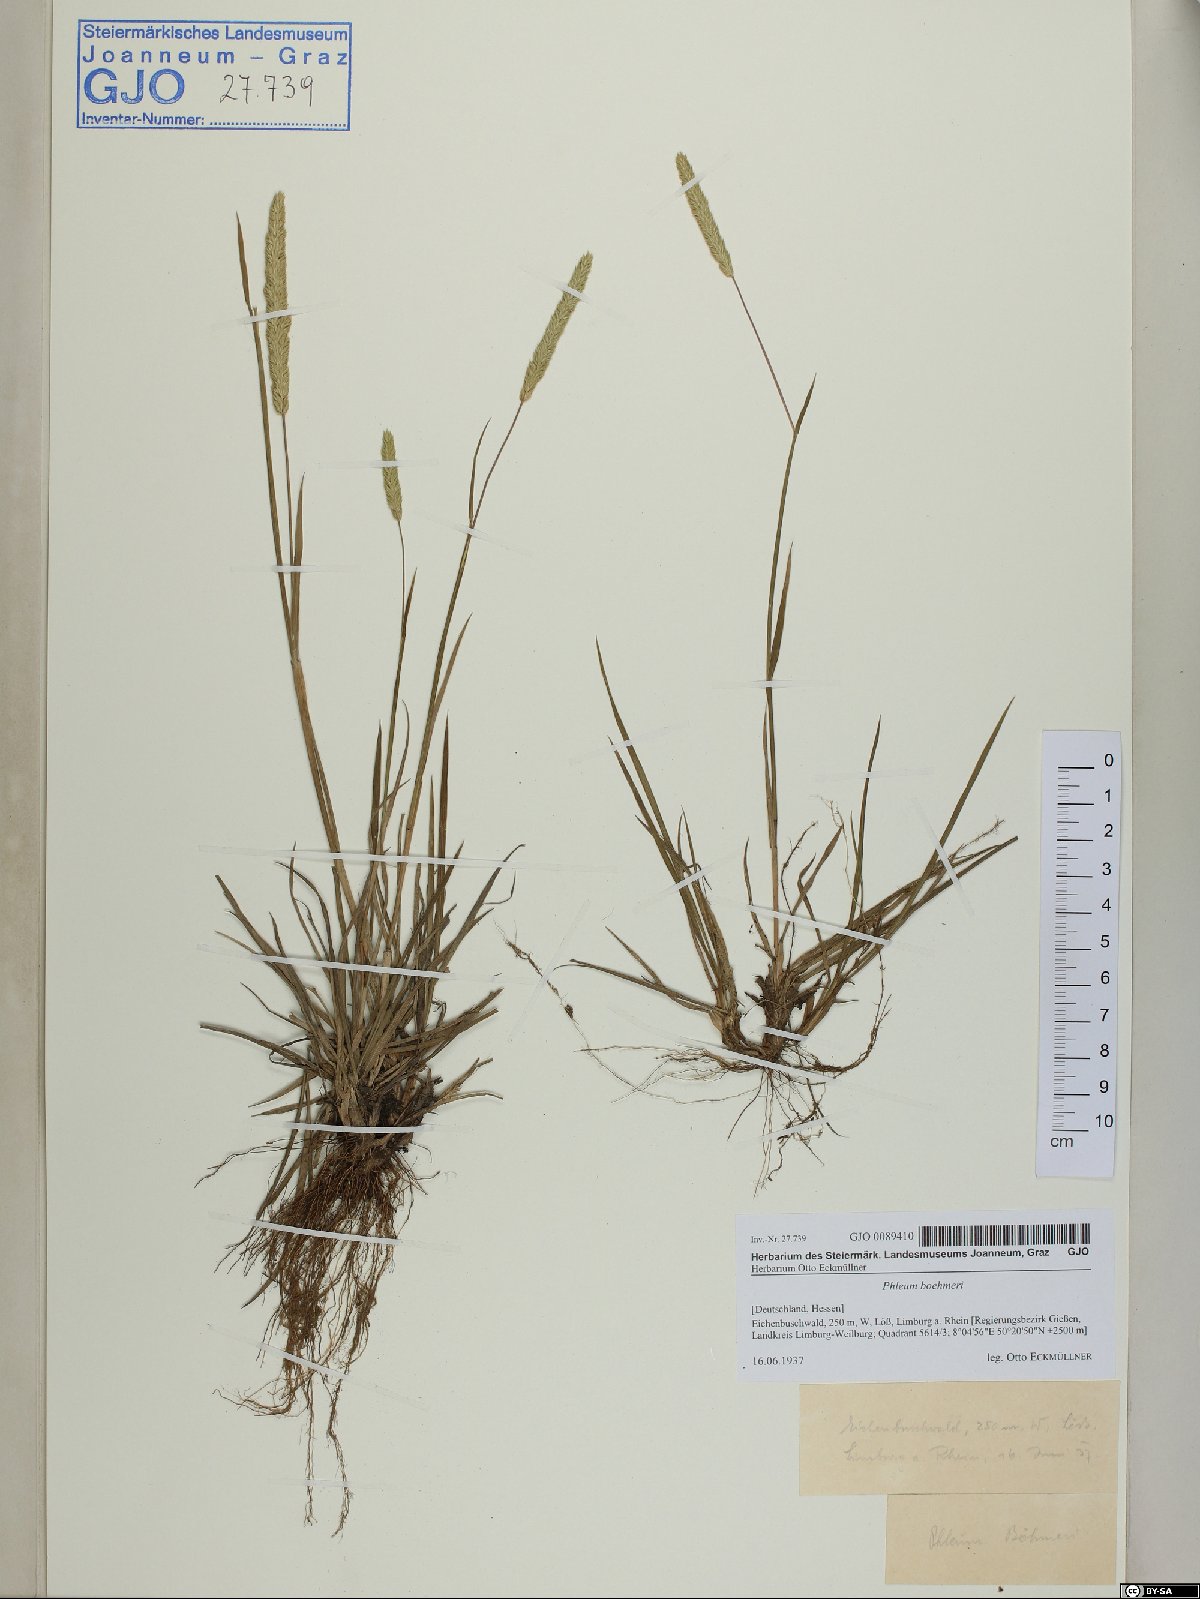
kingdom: Plantae
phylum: Tracheophyta
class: Liliopsida
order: Poales
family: Poaceae
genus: Phleum
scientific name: Phleum phleoides
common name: Purple-stem cat's-tail
